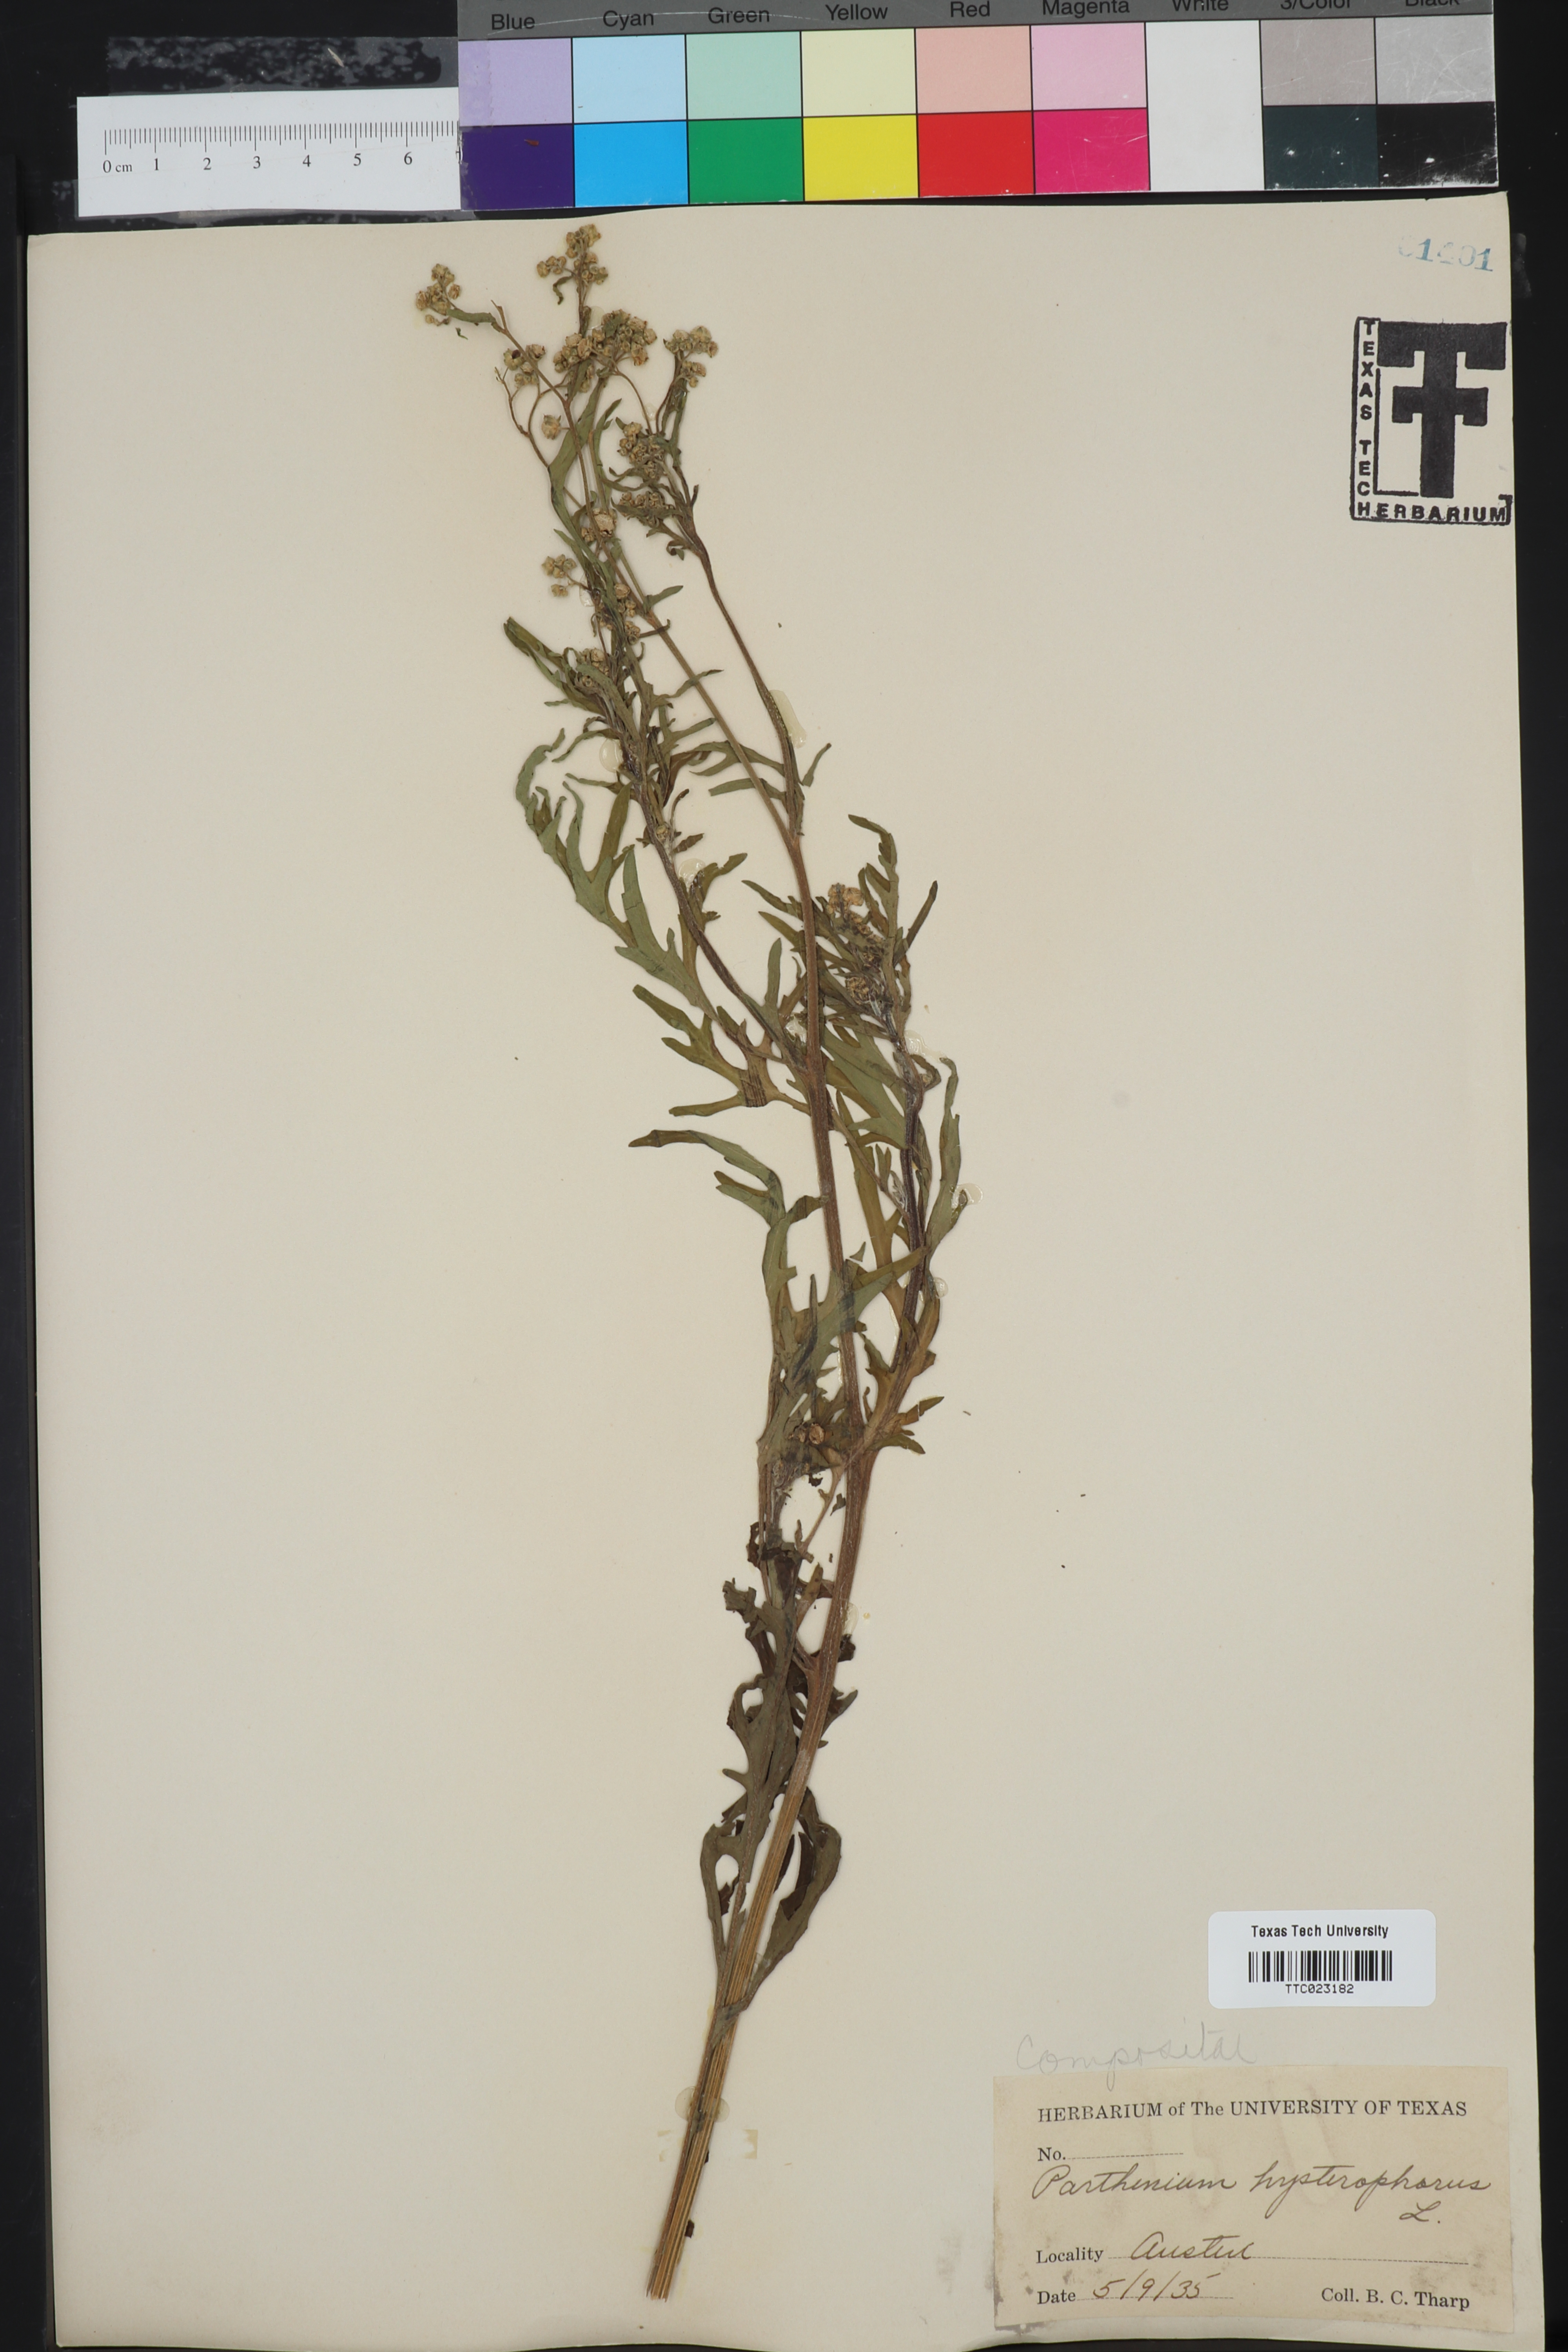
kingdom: Plantae
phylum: Tracheophyta
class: Magnoliopsida
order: Asterales
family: Asteraceae
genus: Parthenium
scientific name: Parthenium hysterophorus
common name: Santa maria feverfew
